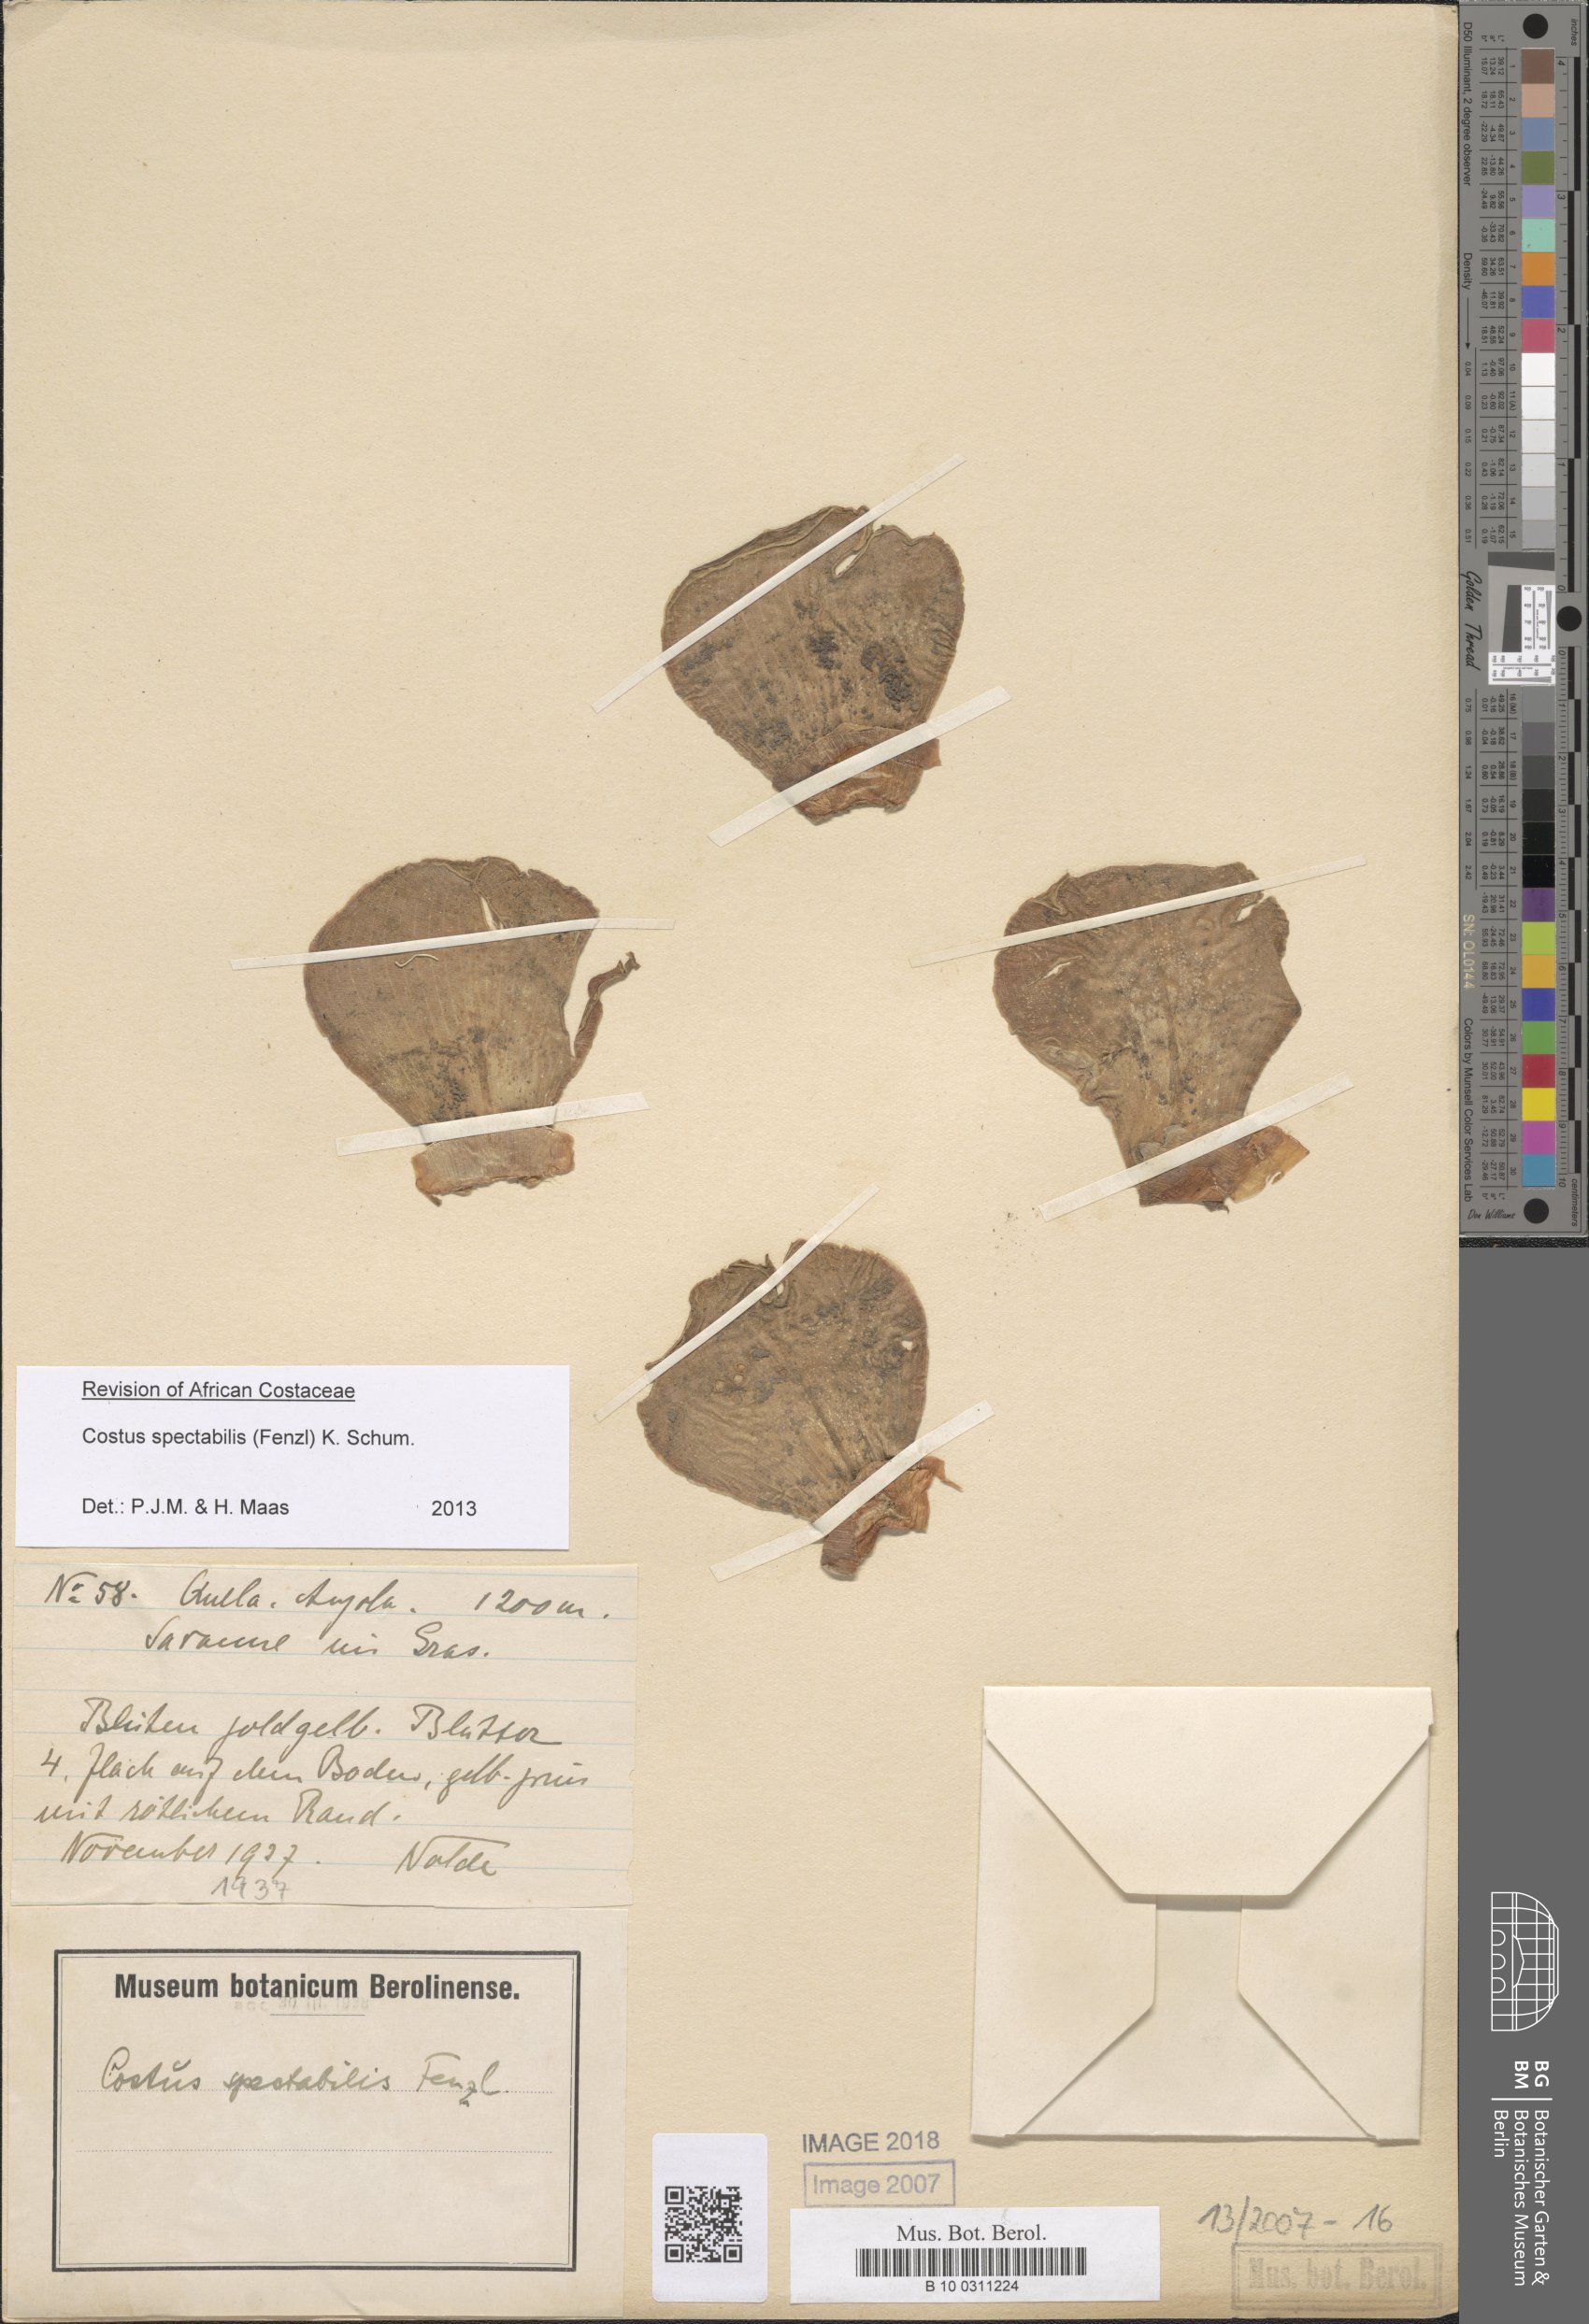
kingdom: Plantae
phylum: Tracheophyta
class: Liliopsida
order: Zingiberales
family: Costaceae
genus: Costus
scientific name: Costus spectabilis
